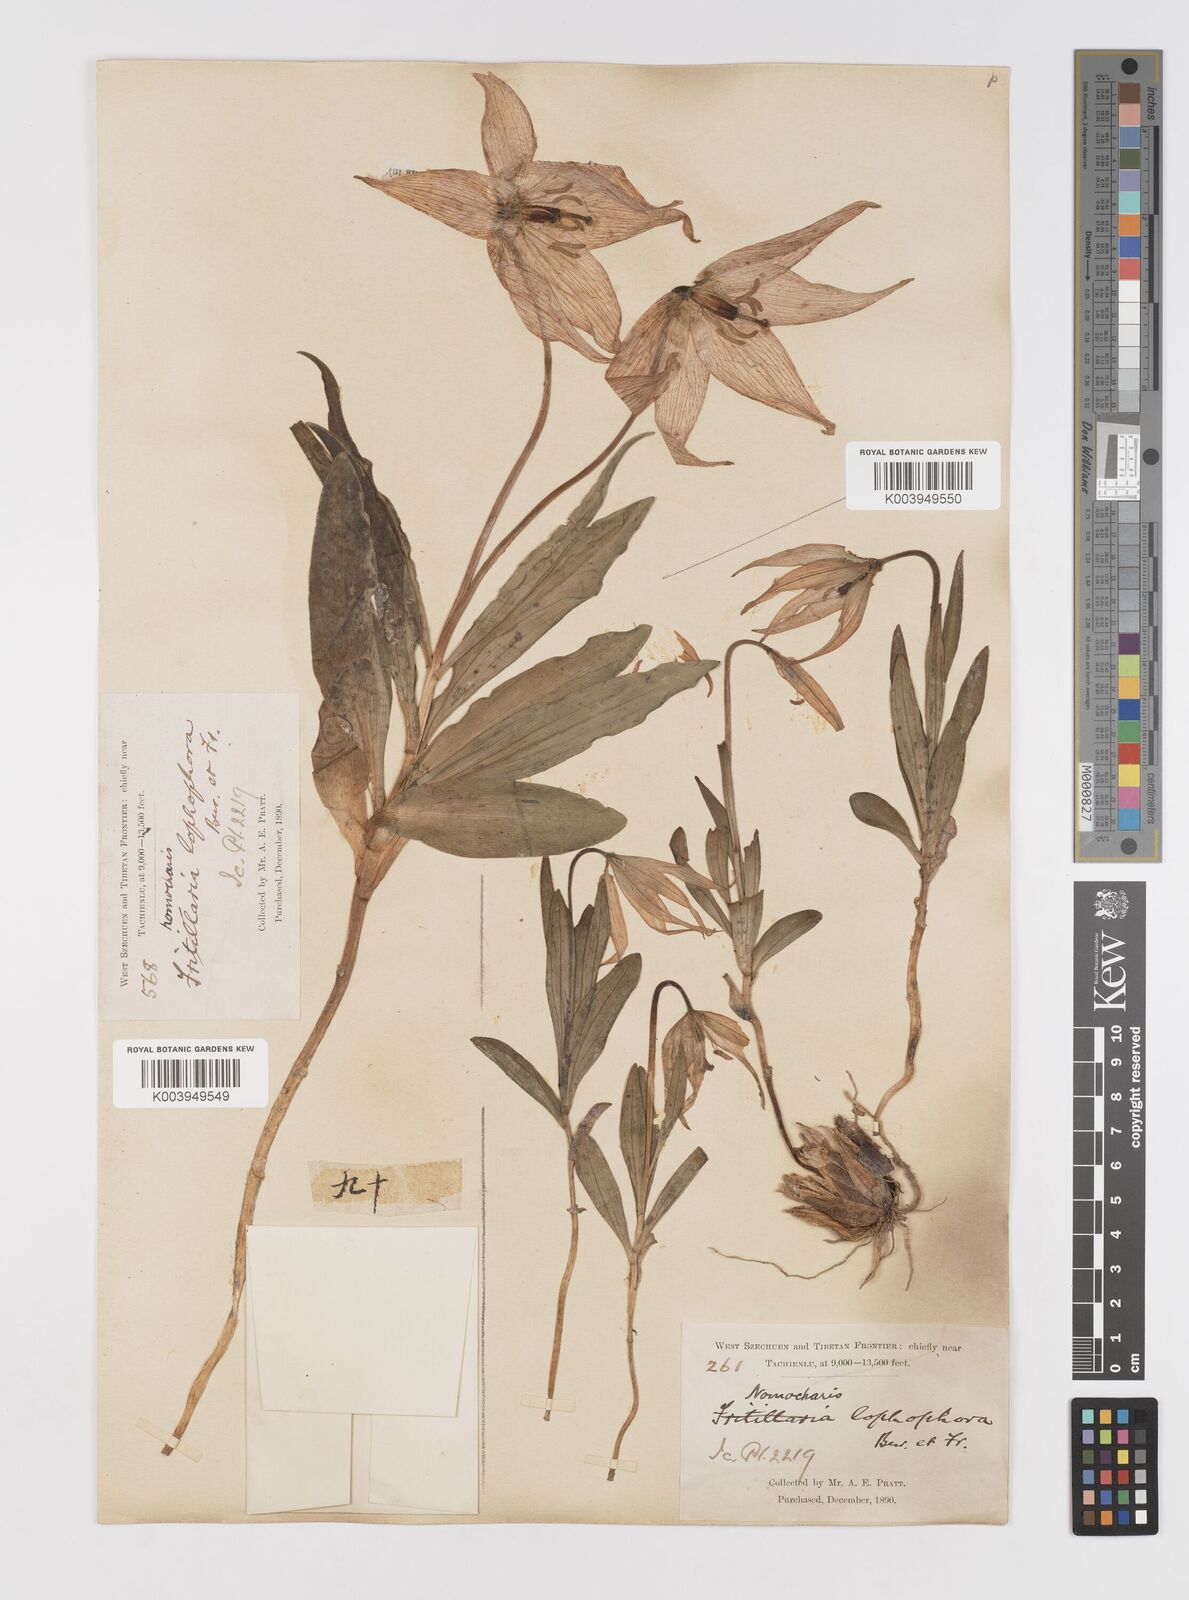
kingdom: Plantae
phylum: Tracheophyta
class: Liliopsida
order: Liliales
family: Liliaceae
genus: Lilium
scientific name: Lilium lophophorum
